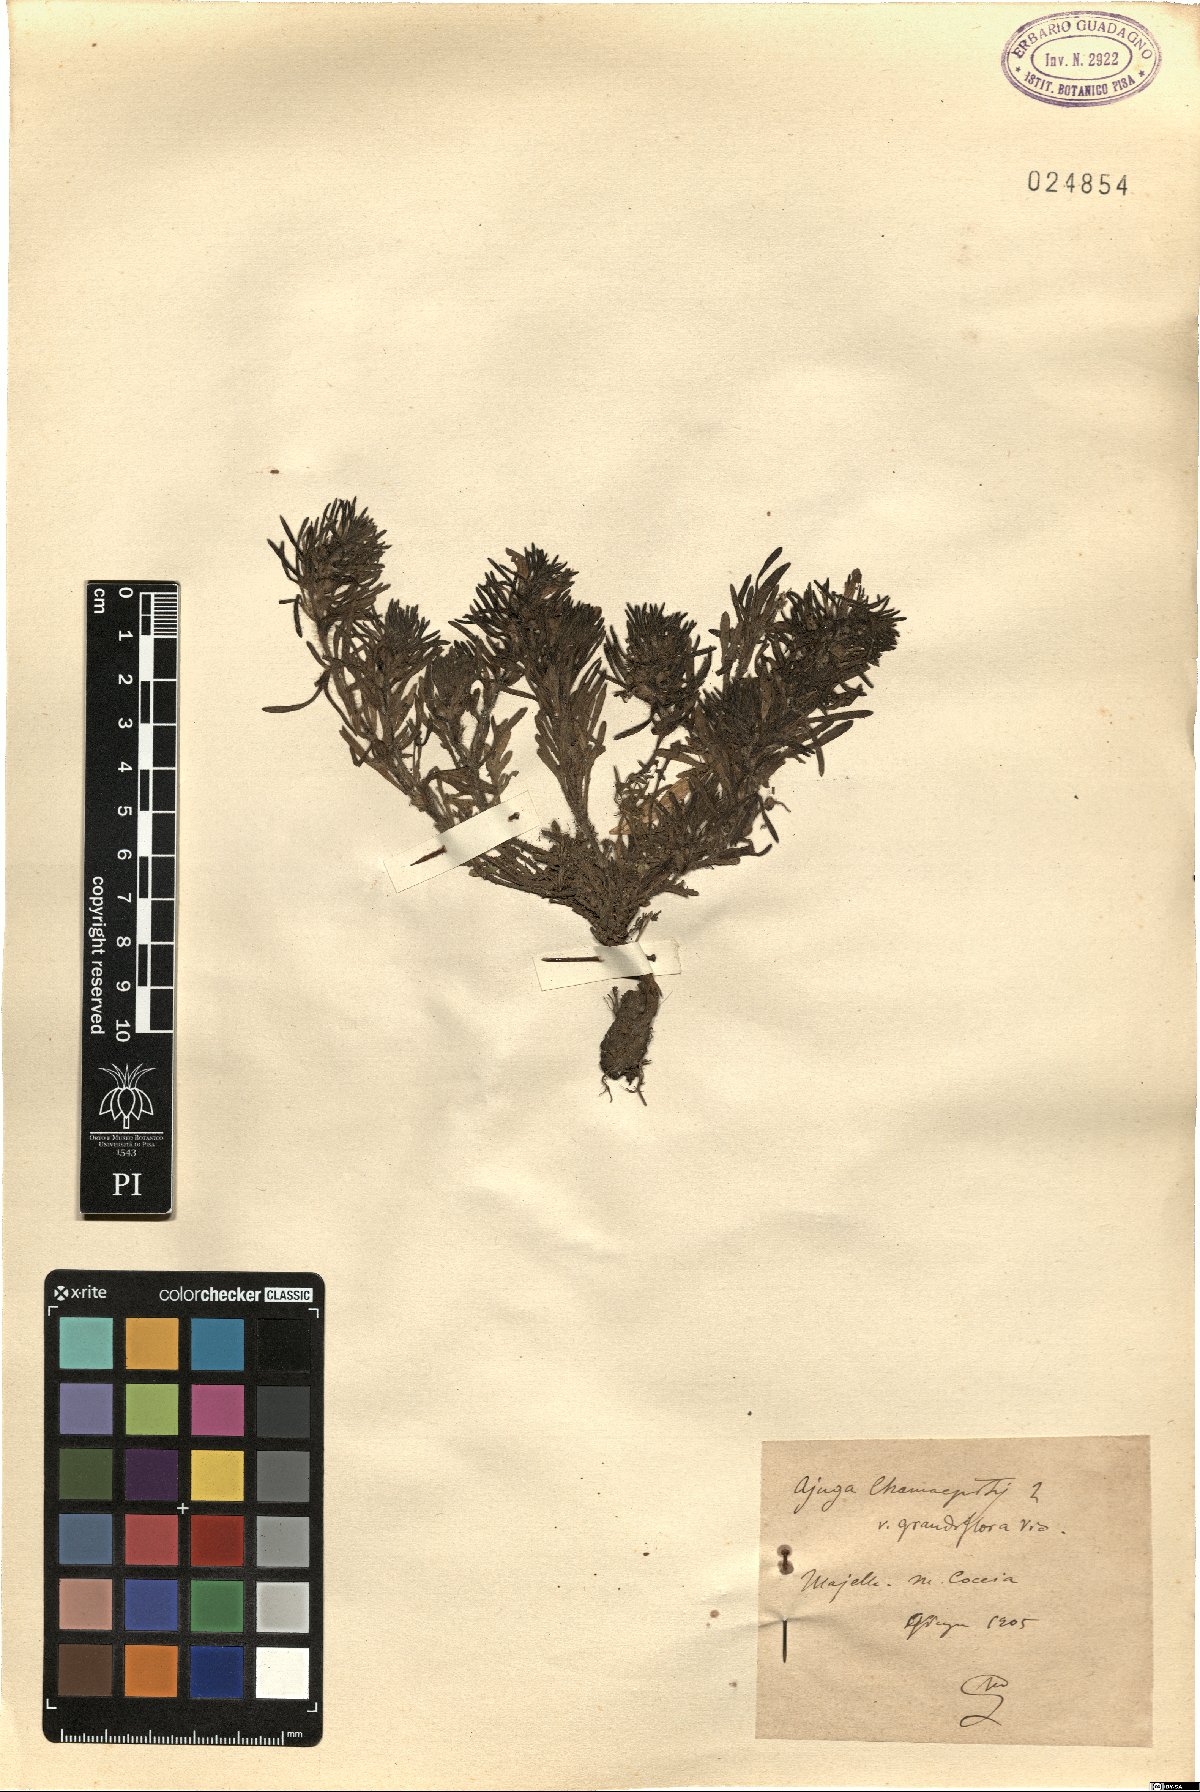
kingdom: Plantae
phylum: Tracheophyta
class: Magnoliopsida
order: Lamiales
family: Lamiaceae
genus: Ajuga
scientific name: Ajuga chamaepitys
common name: Ground-pine
